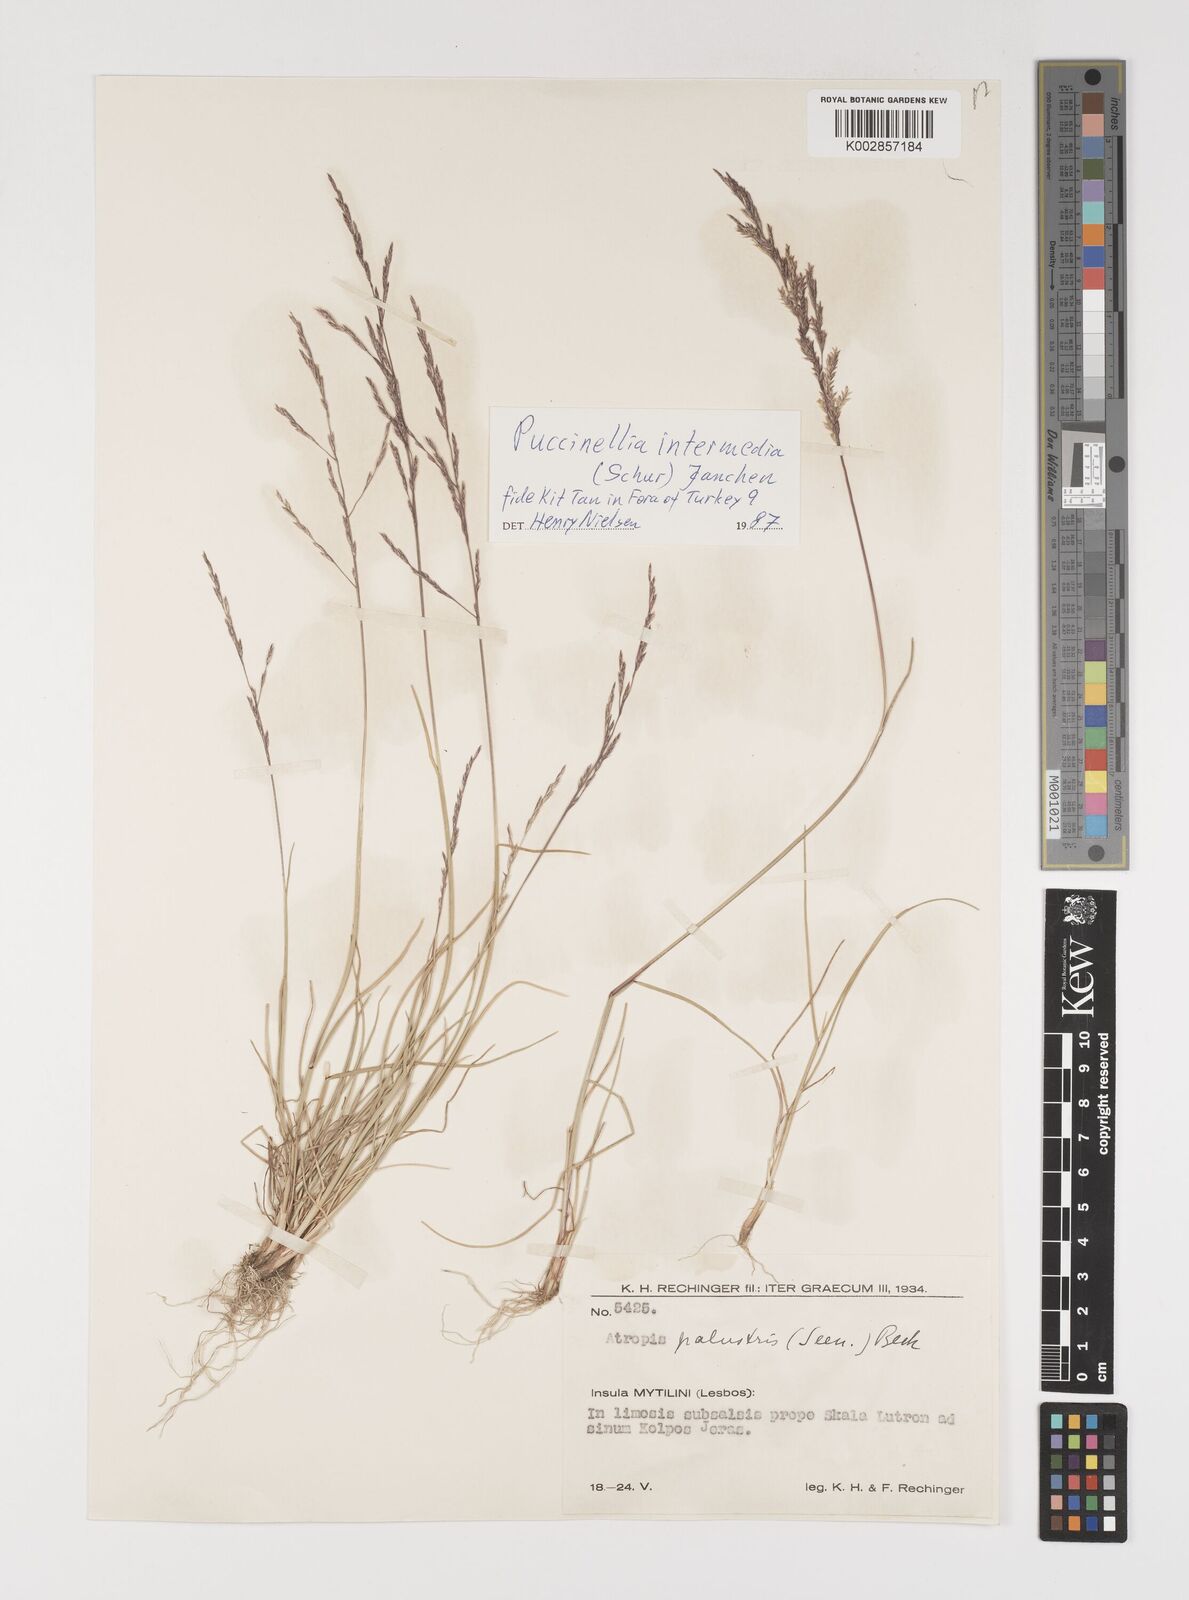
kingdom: Plantae
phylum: Tracheophyta
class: Liliopsida
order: Poales
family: Poaceae
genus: Puccinellia
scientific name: Puccinellia intermedia
